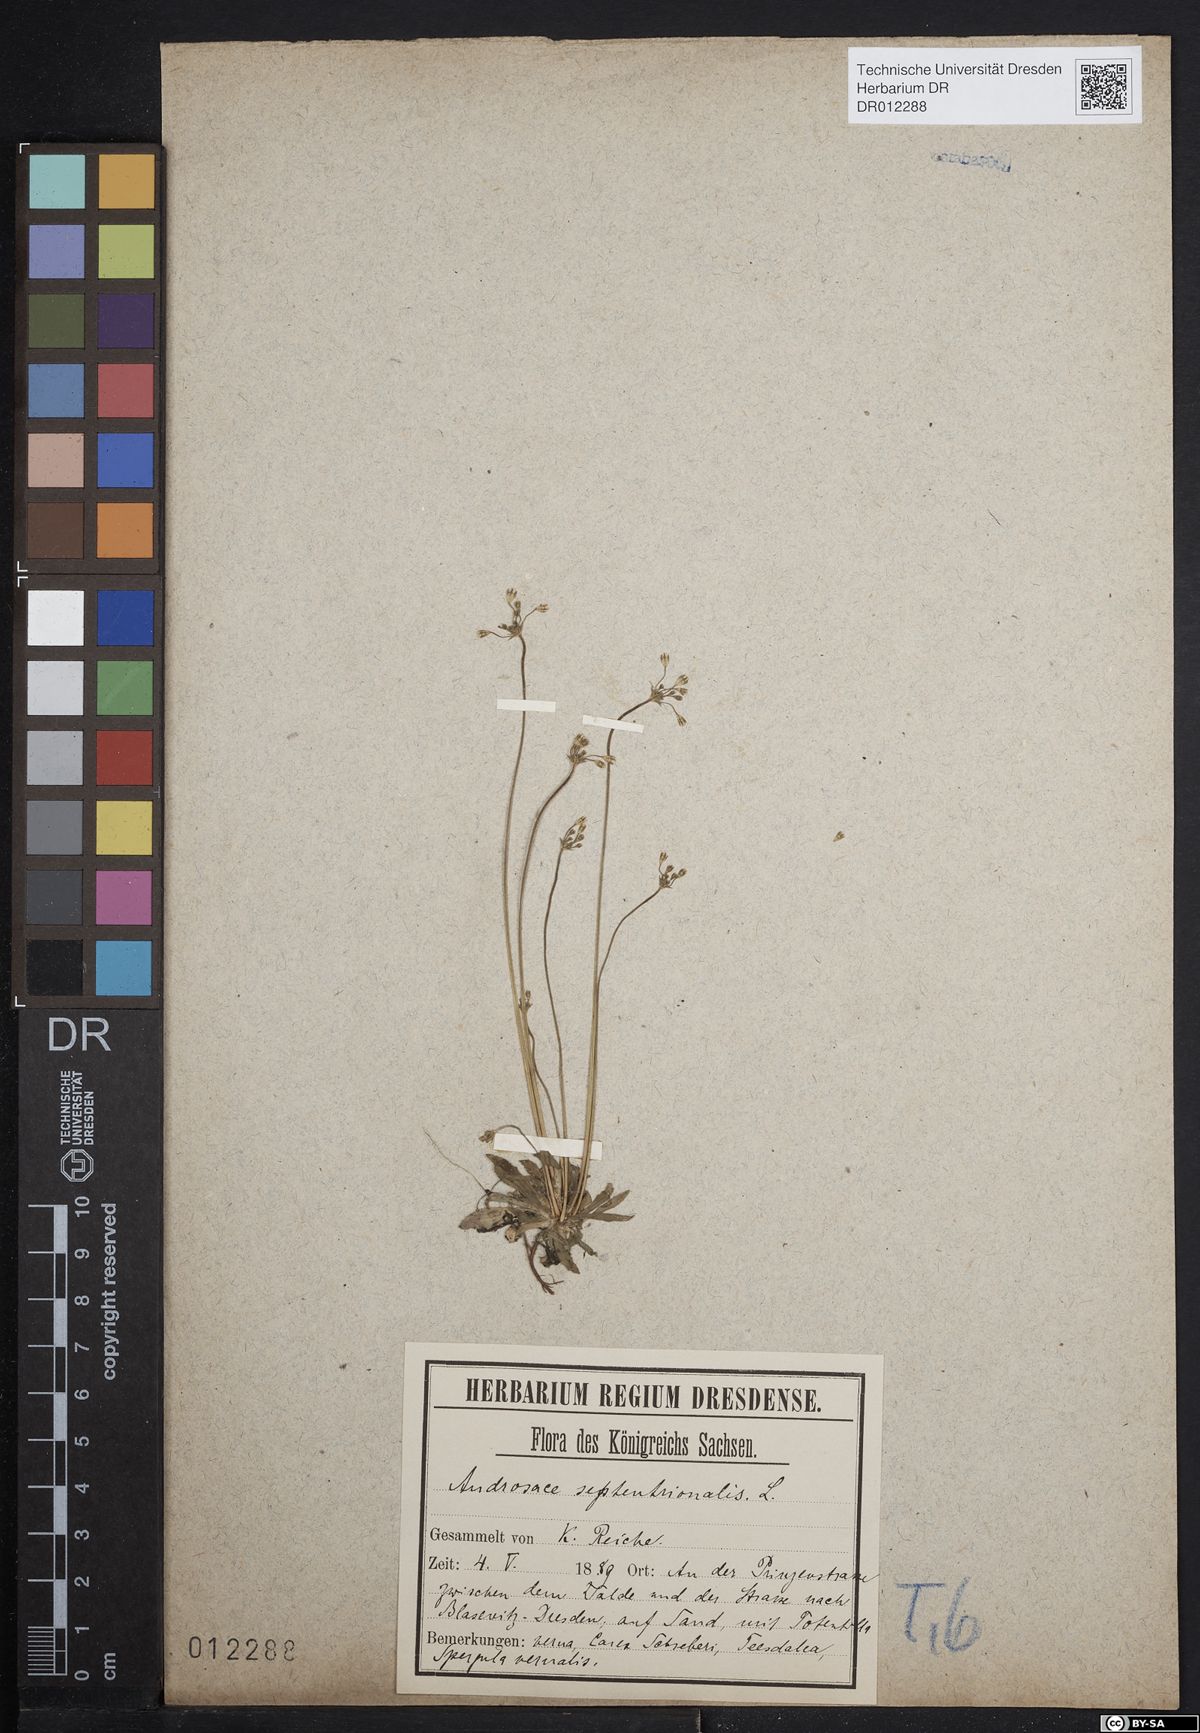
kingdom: Plantae
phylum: Tracheophyta
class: Magnoliopsida
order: Ericales
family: Primulaceae
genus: Androsace
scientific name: Androsace septentrionalis
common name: Hairy northern fairy-candelabra
